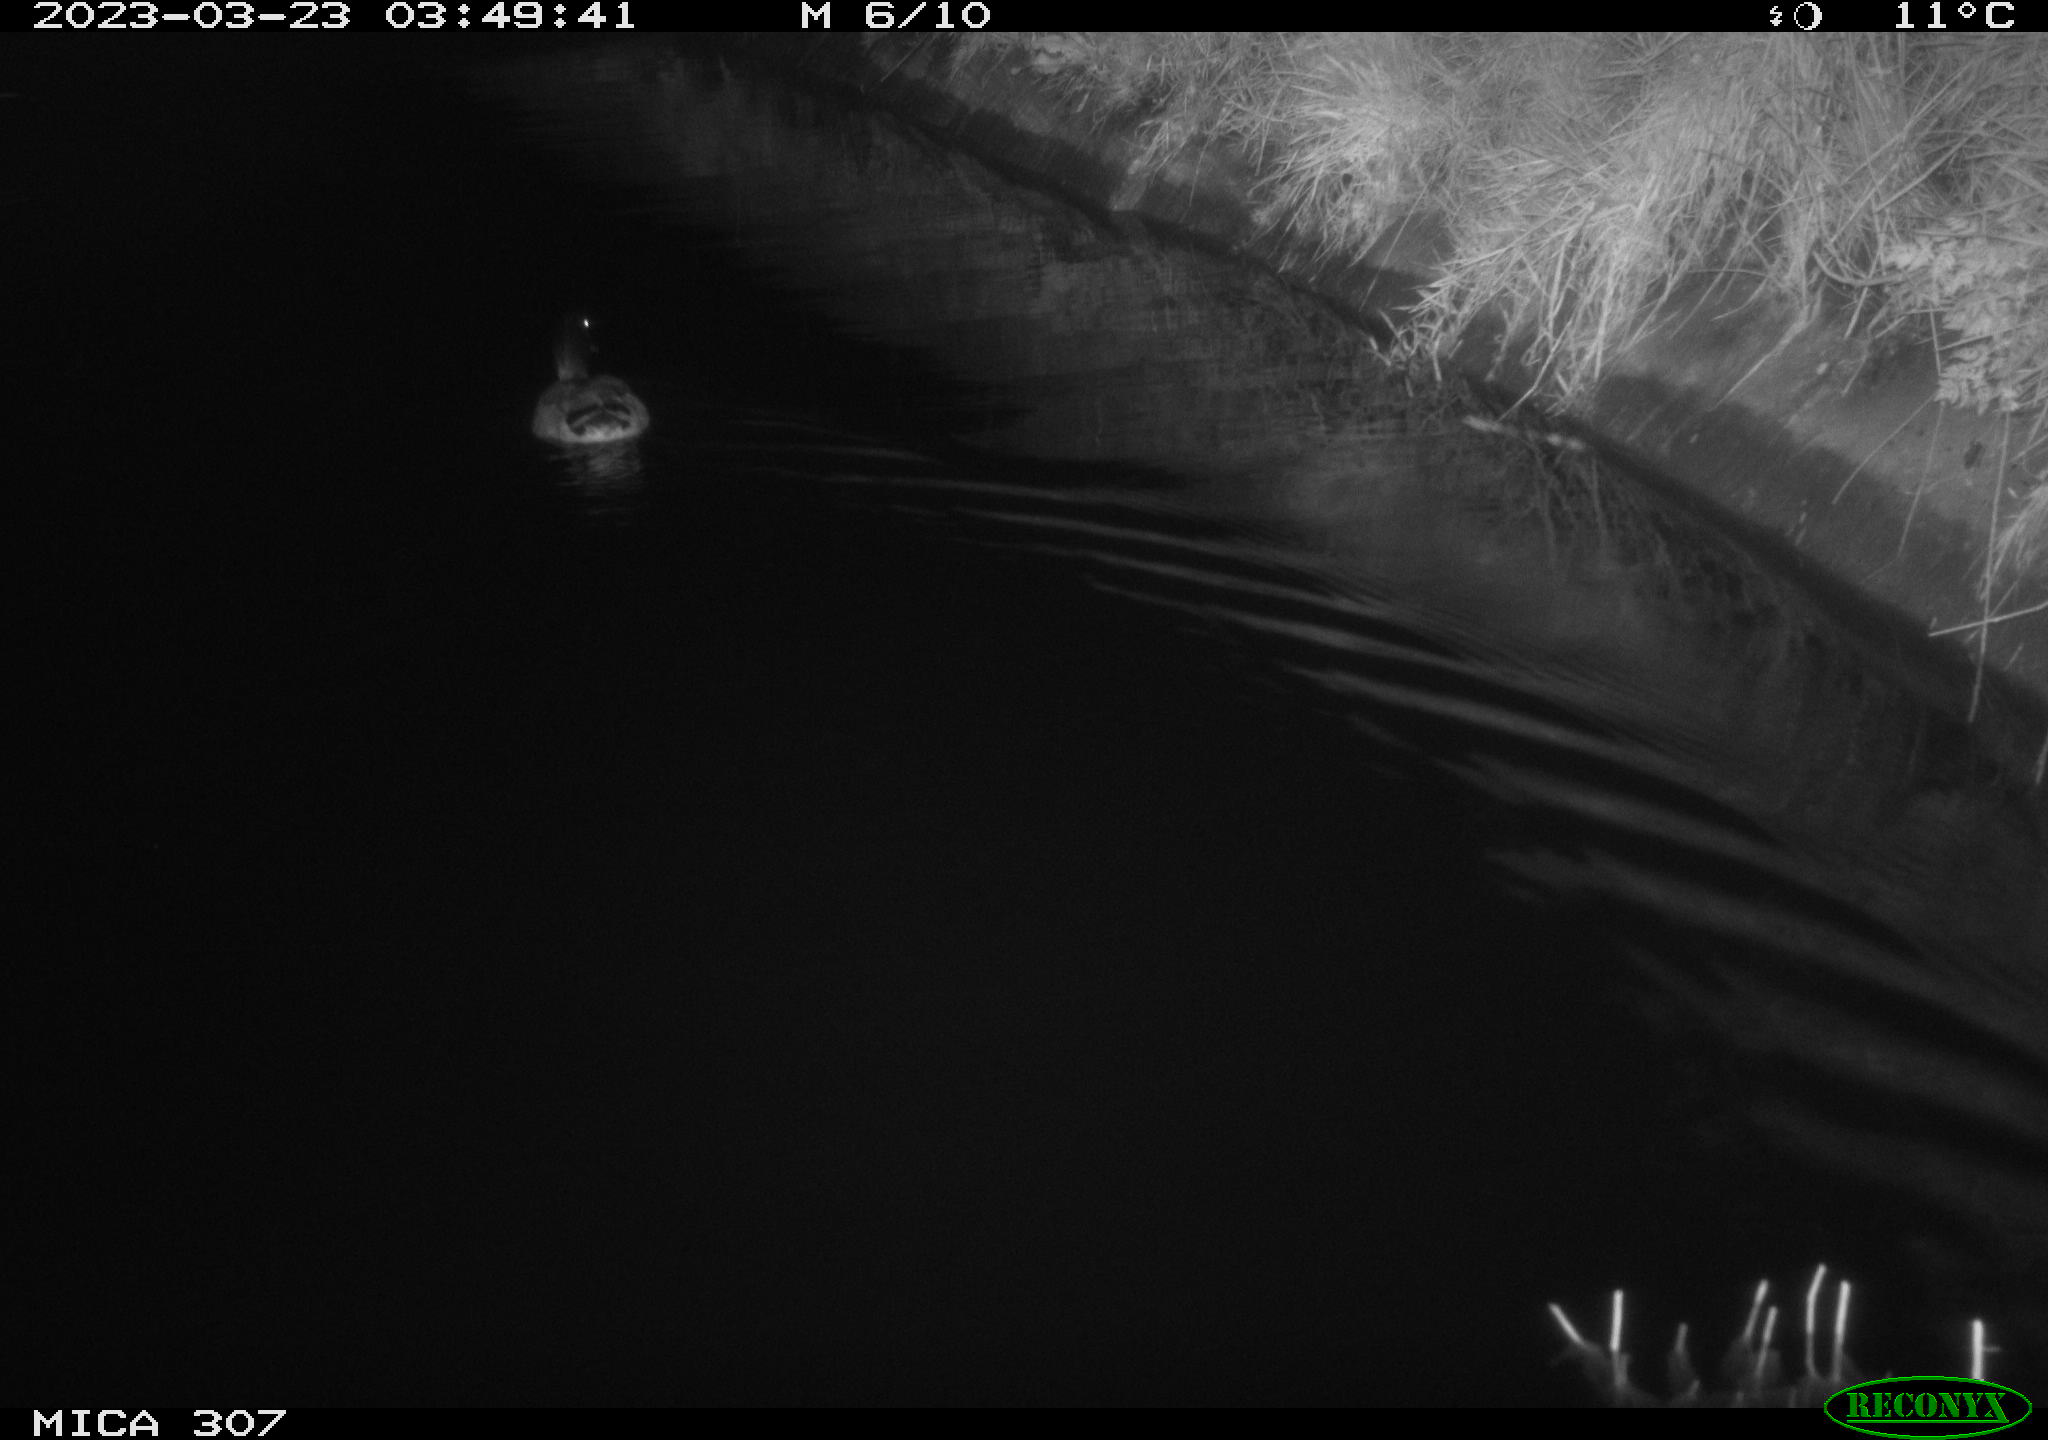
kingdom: Animalia
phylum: Chordata
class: Aves
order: Anseriformes
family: Anatidae
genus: Anas
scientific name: Anas
